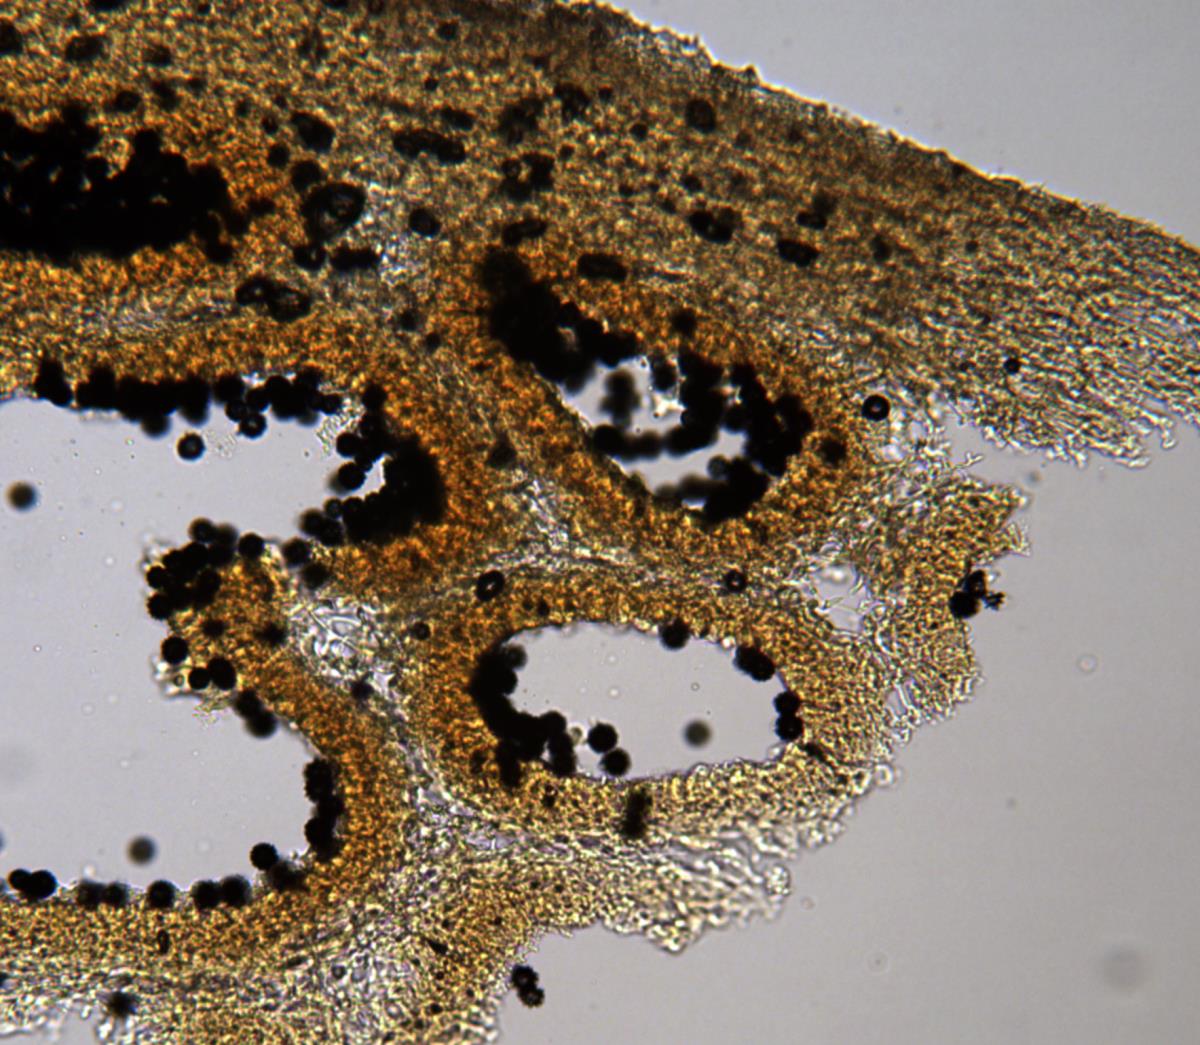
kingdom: Fungi
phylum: Basidiomycota
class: Agaricomycetes
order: Russulales
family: Russulaceae
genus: Zelleromyces
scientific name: Zelleromyces
